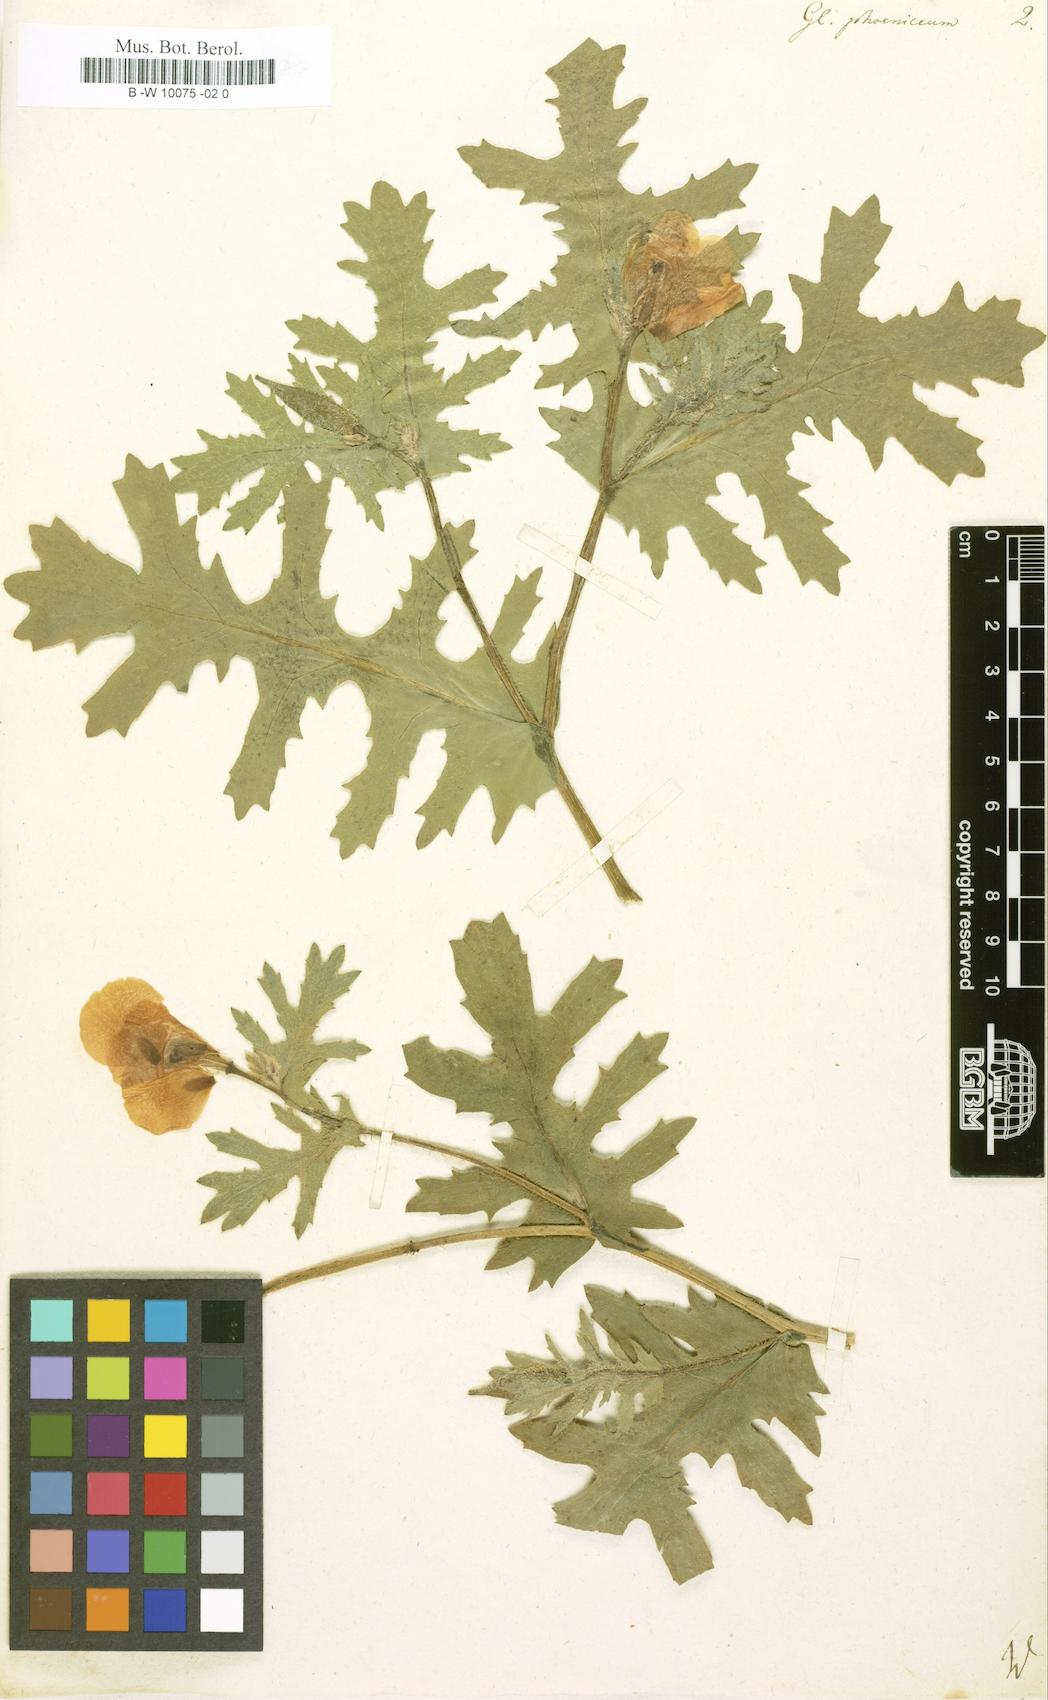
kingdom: Plantae
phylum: Tracheophyta
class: Magnoliopsida
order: Ranunculales
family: Papaveraceae
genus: Glaucium
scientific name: Glaucium
